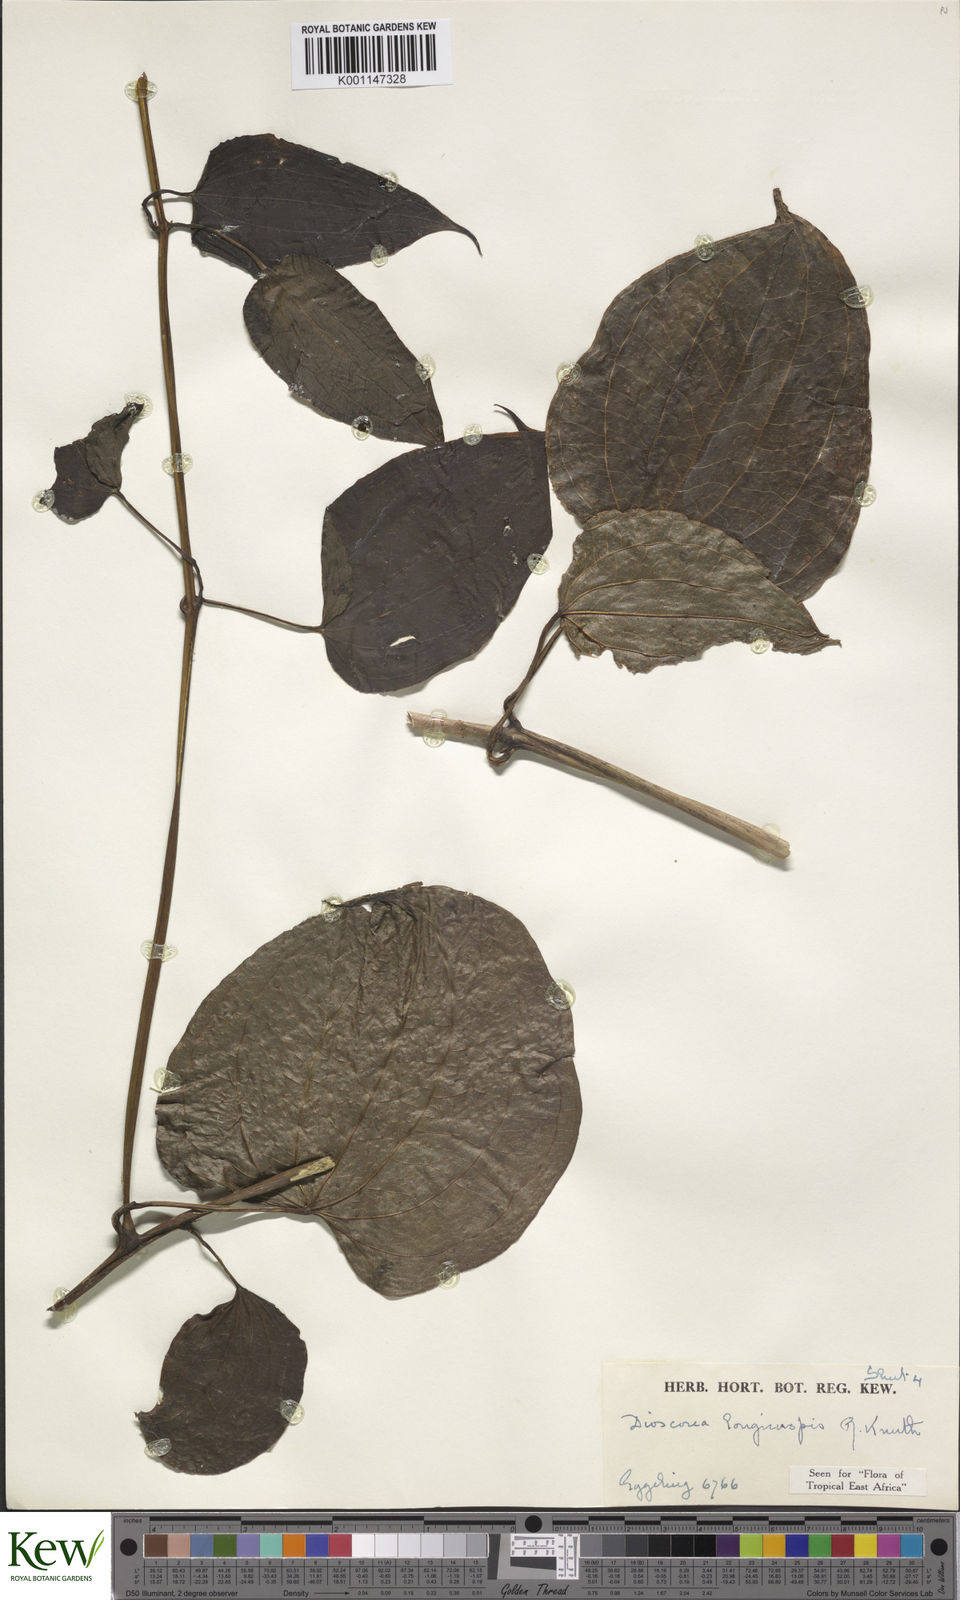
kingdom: Plantae
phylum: Tracheophyta
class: Liliopsida
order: Dioscoreales
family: Dioscoreaceae
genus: Dioscorea
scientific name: Dioscorea longicuspis
